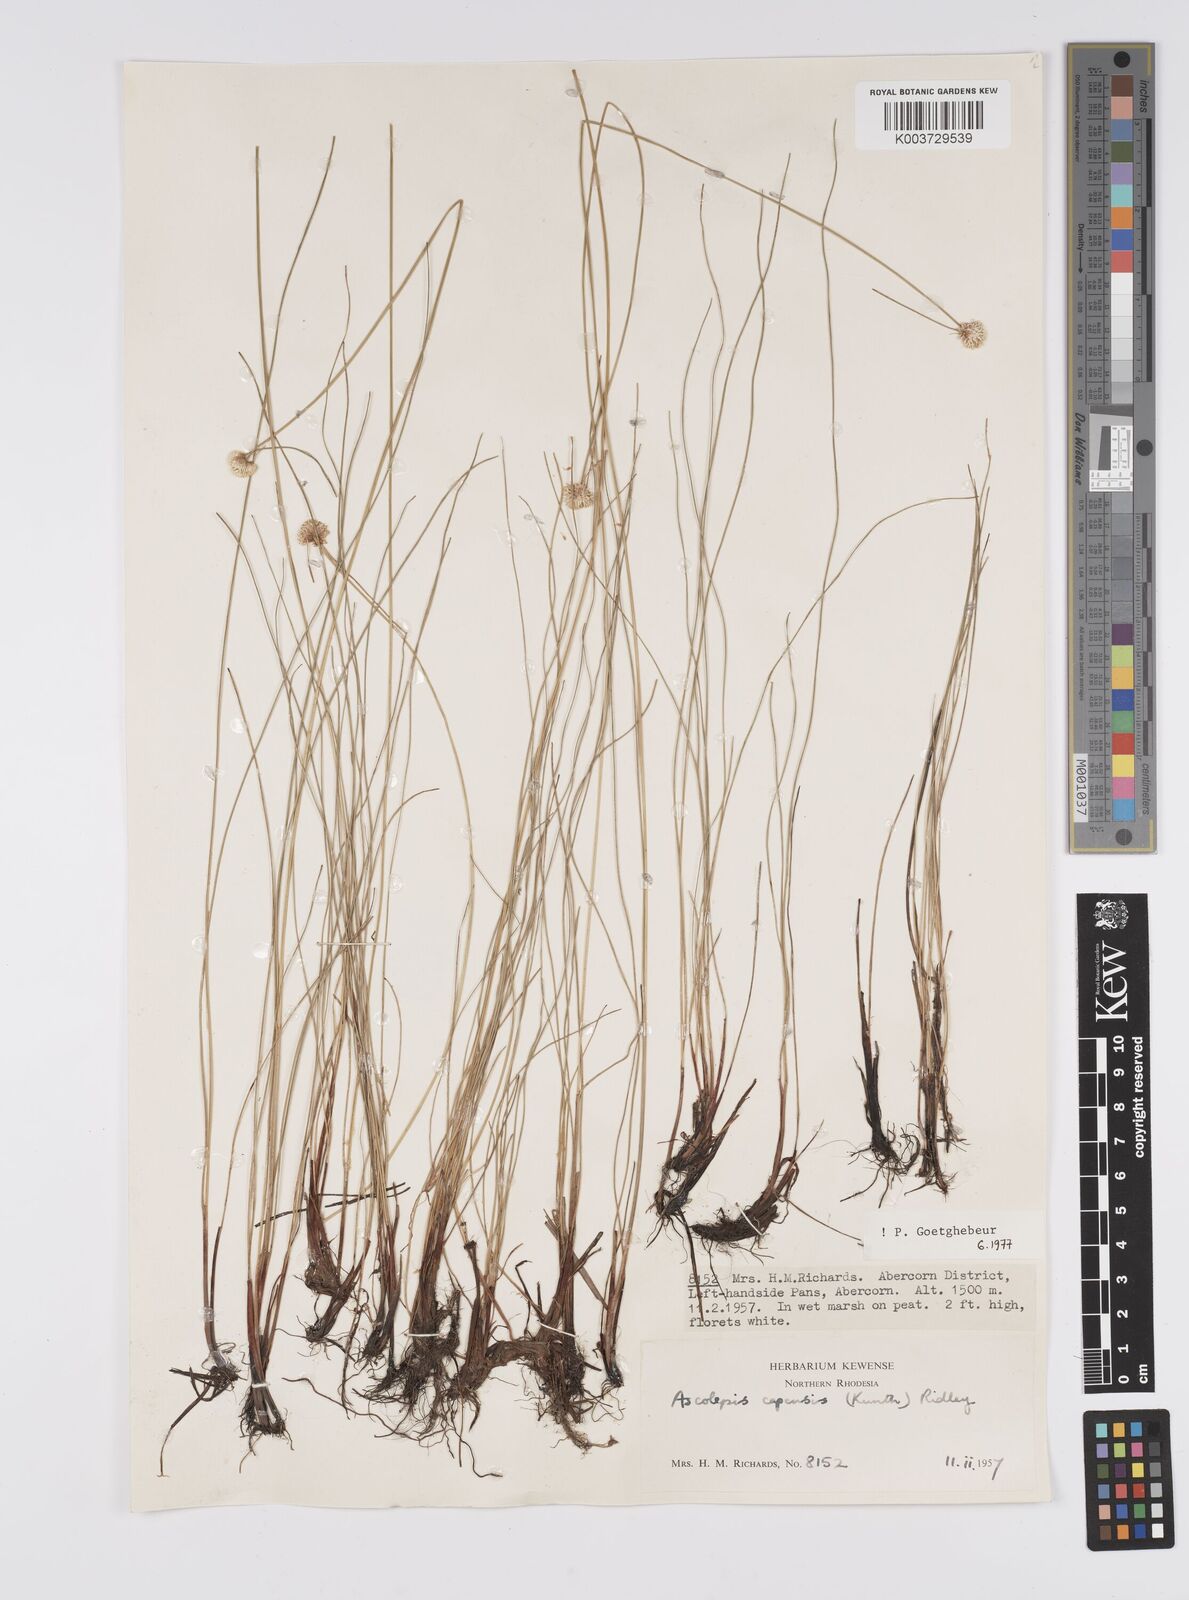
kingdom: Plantae
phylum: Tracheophyta
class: Liliopsida
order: Poales
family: Cyperaceae
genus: Cyperus
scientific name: Cyperus
